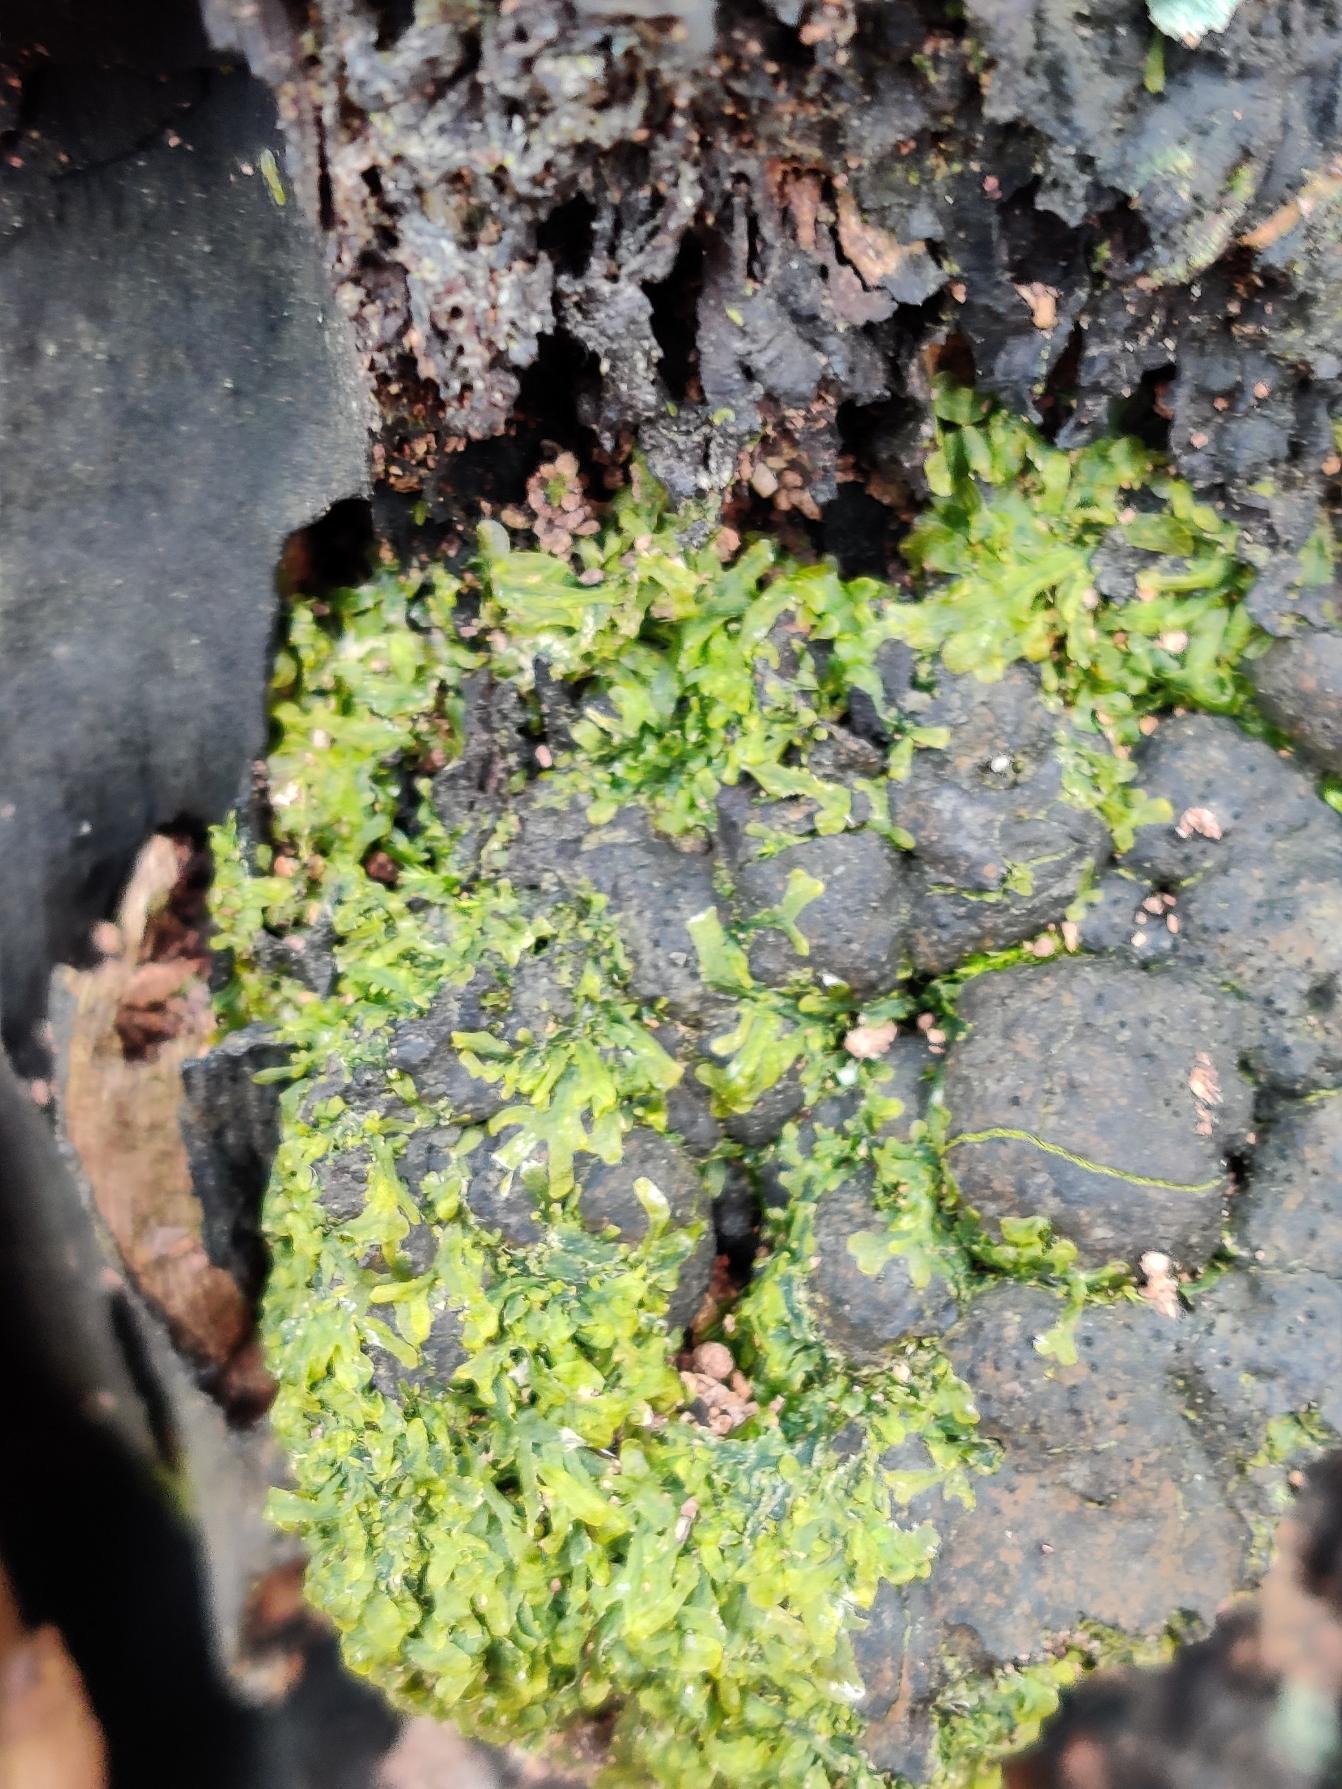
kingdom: Plantae
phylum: Marchantiophyta
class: Jungermanniopsida
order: Metzgeriales
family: Metzgeriaceae
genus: Metzgeria
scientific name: Metzgeria furcata
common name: Almindelig gaffelløv
